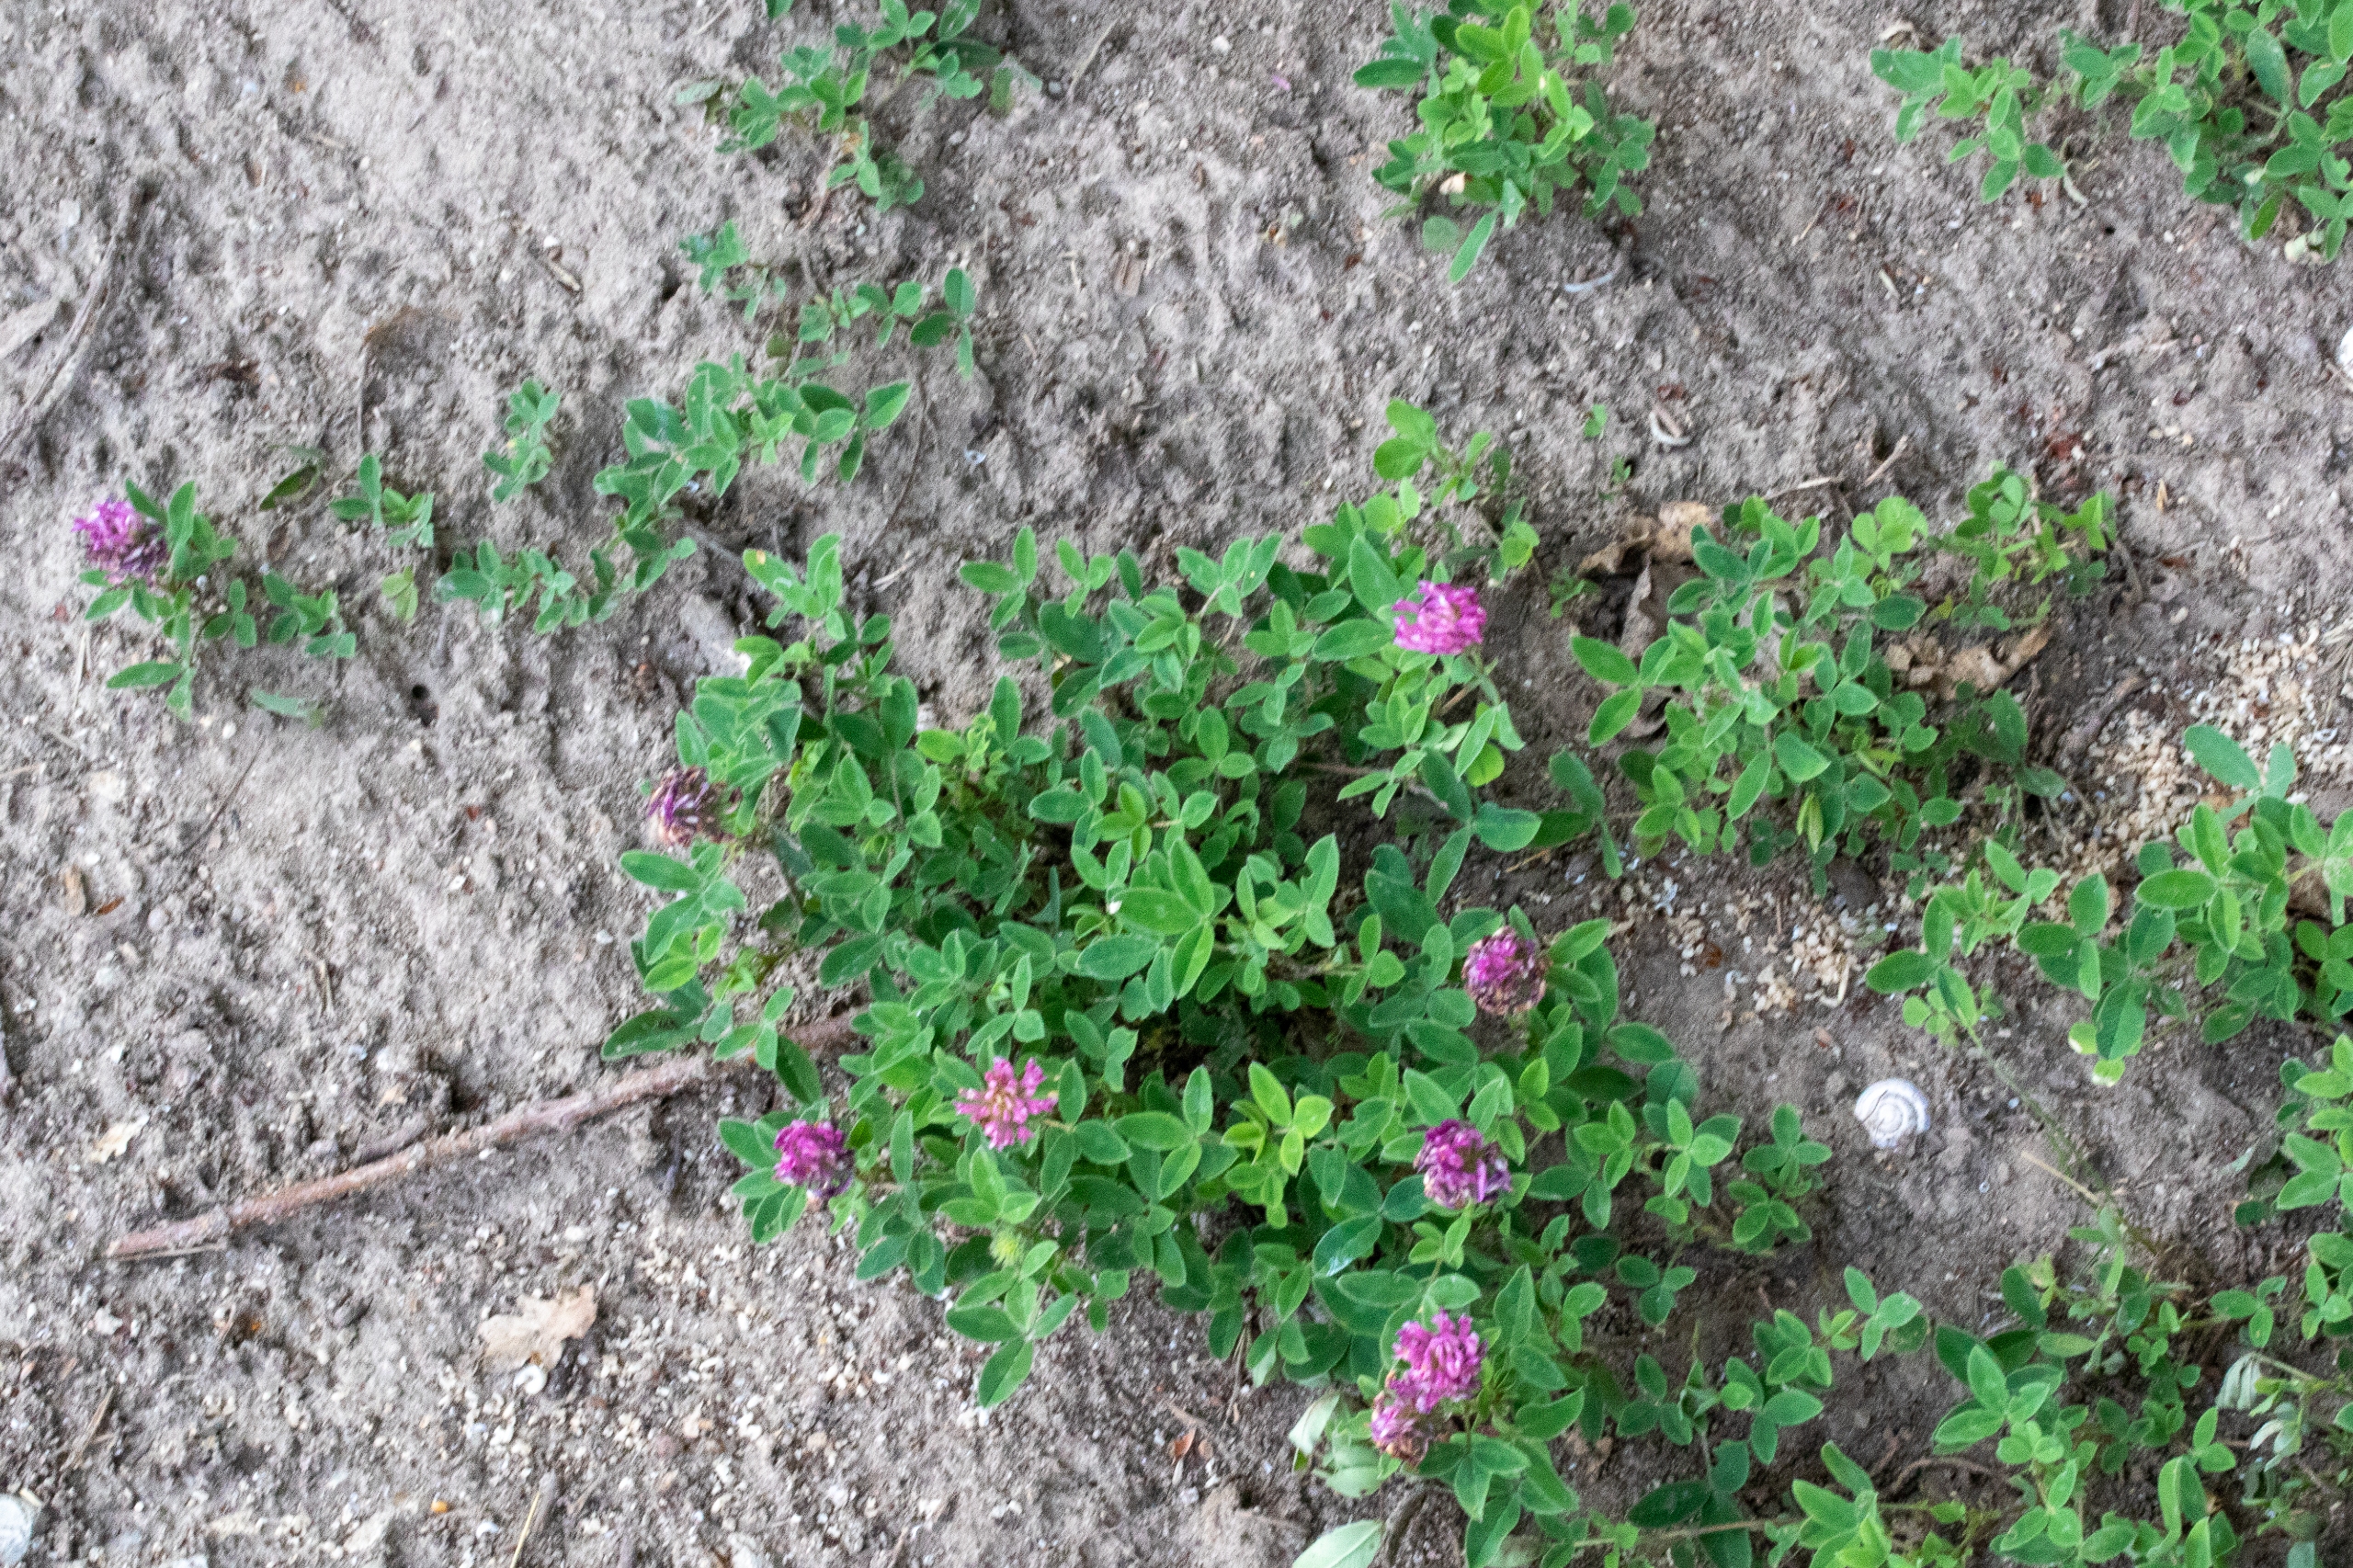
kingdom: Plantae
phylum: Tracheophyta
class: Magnoliopsida
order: Fabales
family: Fabaceae
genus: Trifolium
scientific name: Trifolium medium
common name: Bugtet kløver
